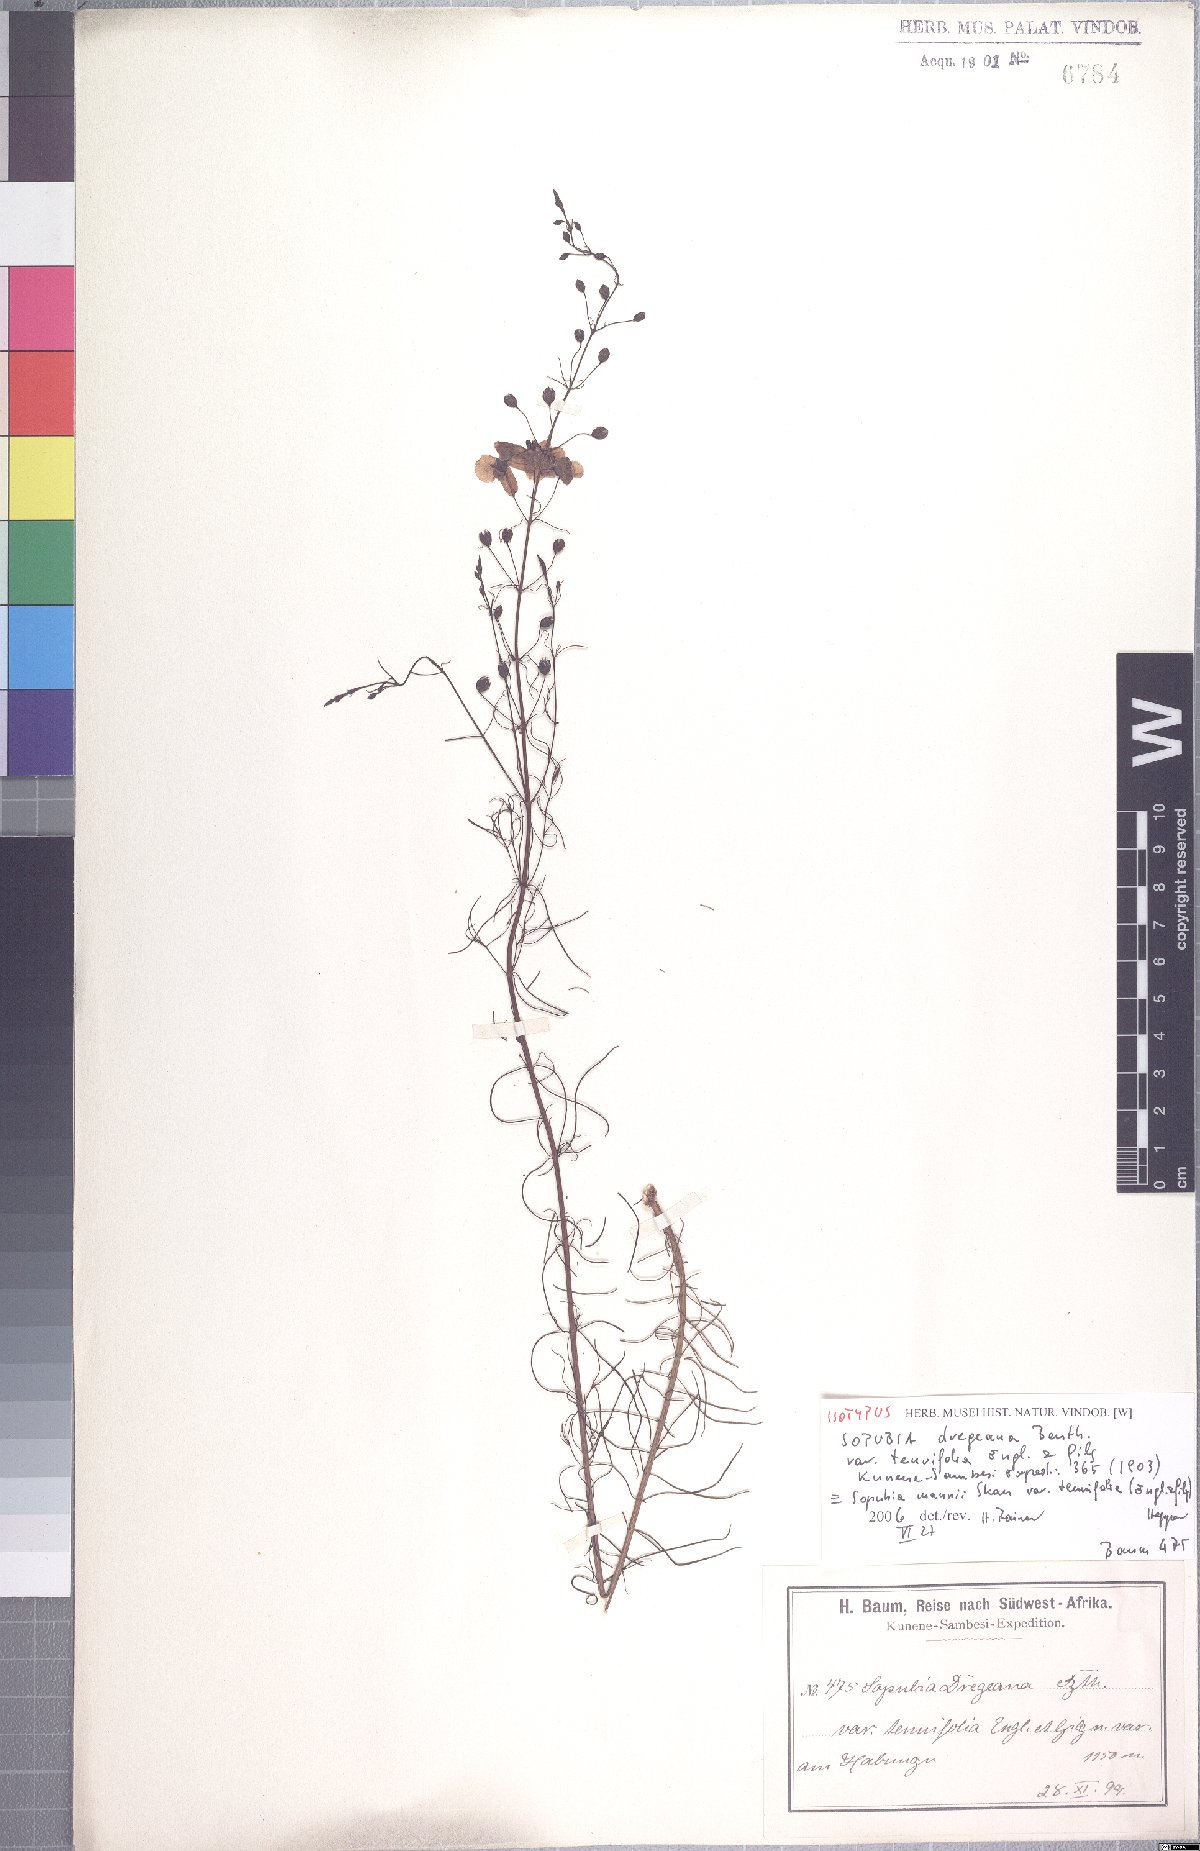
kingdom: Plantae
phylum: Tracheophyta
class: Magnoliopsida
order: Lamiales
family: Orobanchaceae
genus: Sopubia
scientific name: Sopubia mannii
